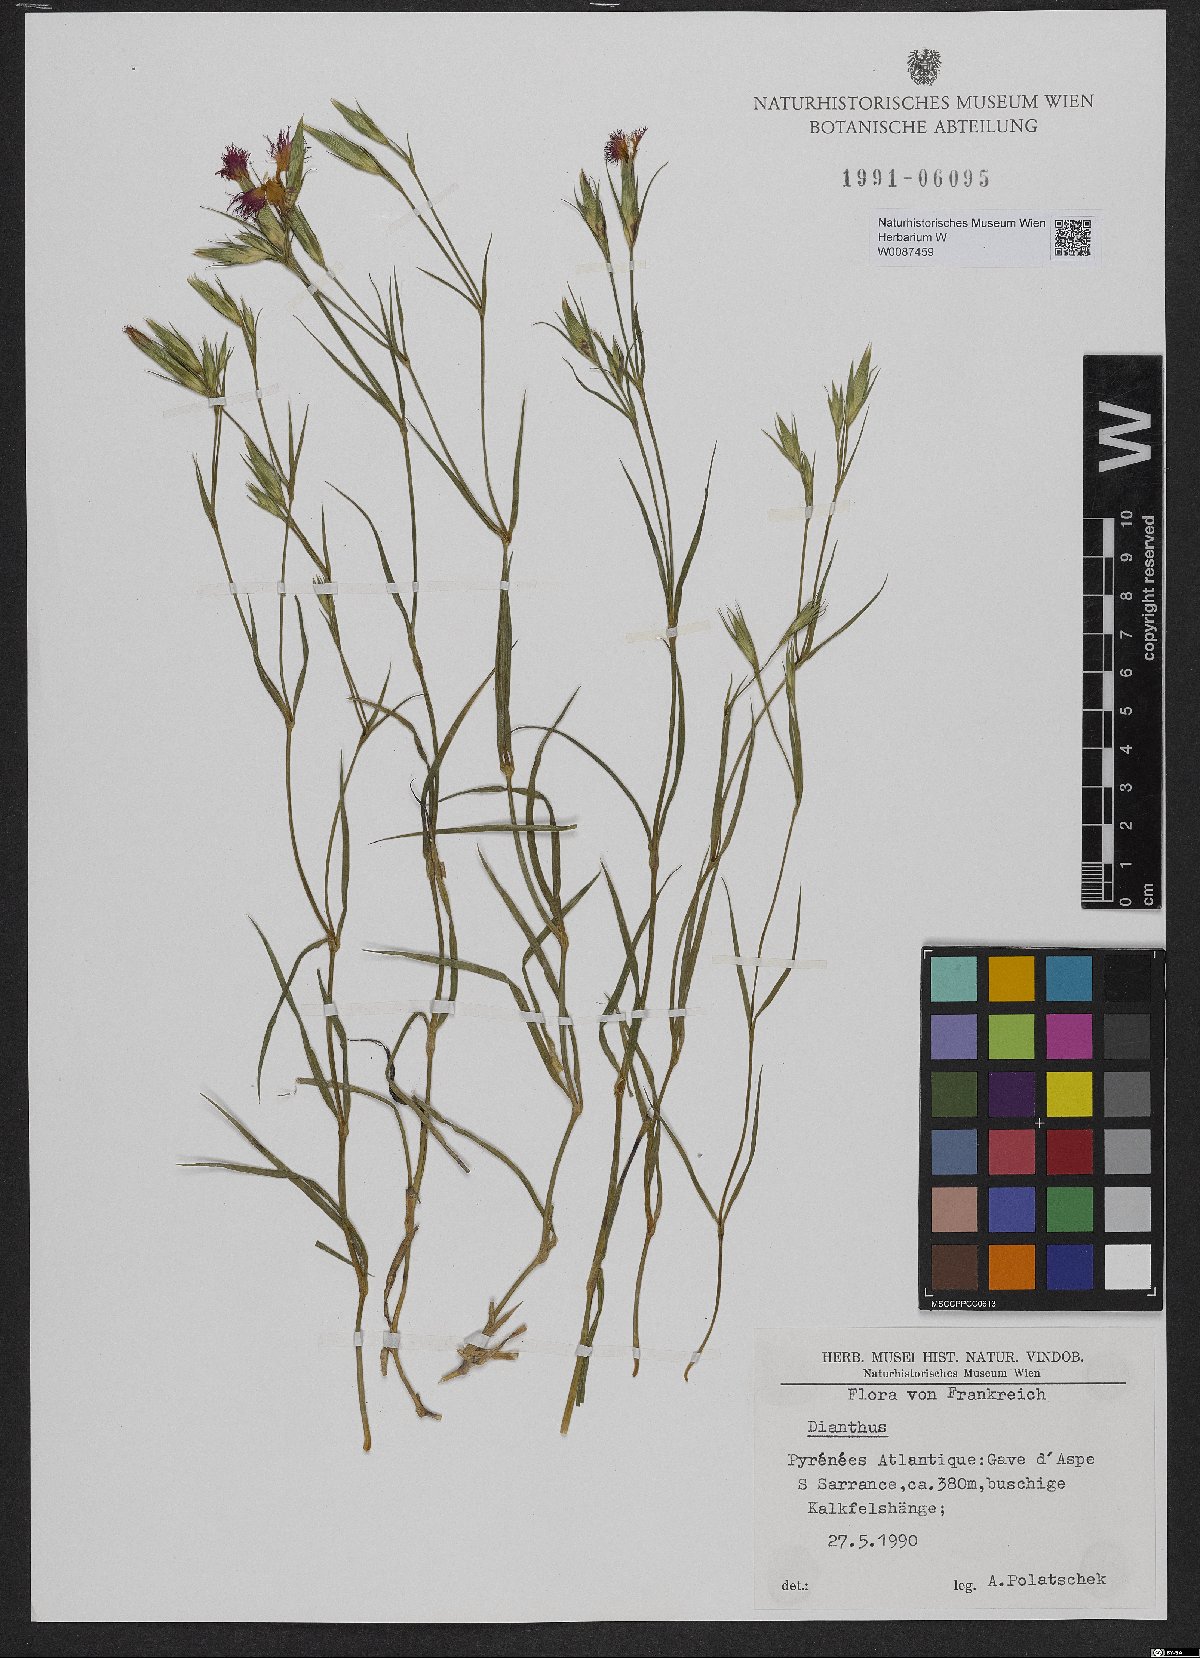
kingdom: Plantae
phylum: Tracheophyta
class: Magnoliopsida
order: Caryophyllales
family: Caryophyllaceae
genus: Dianthus
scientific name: Dianthus
